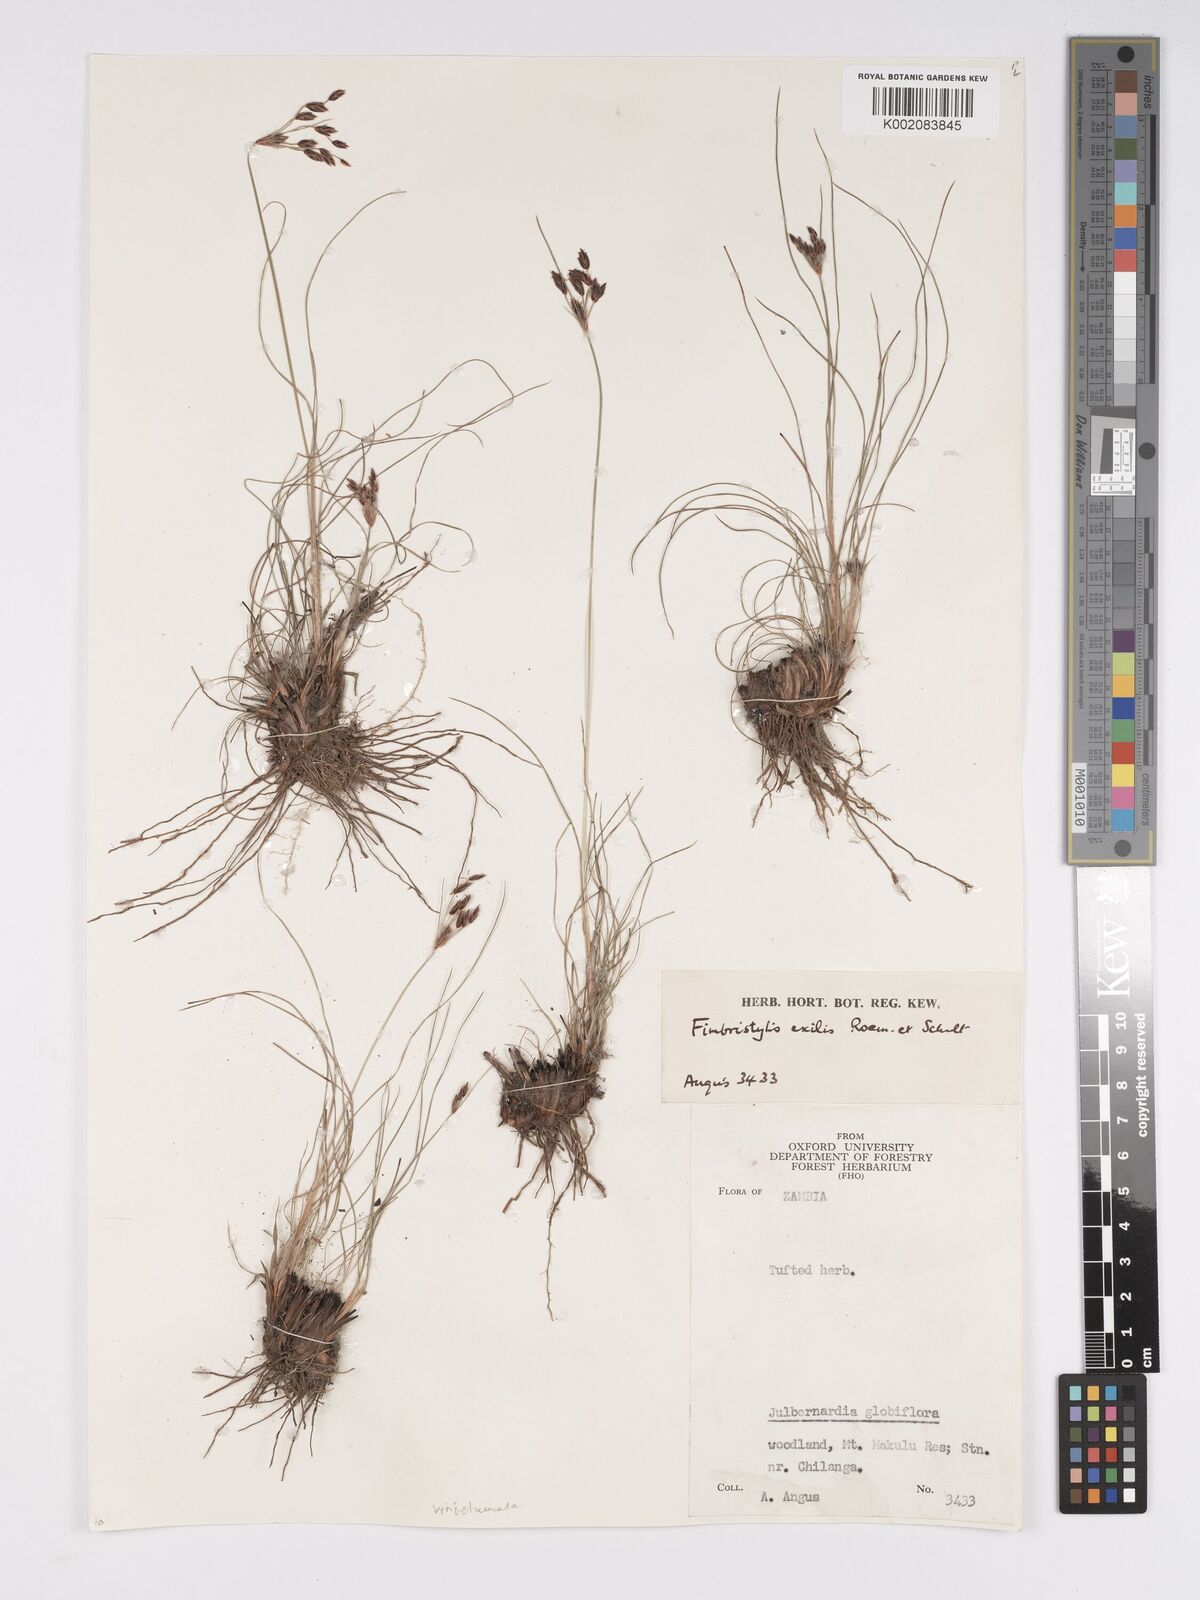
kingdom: Plantae
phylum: Tracheophyta
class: Liliopsida
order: Poales
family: Cyperaceae
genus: Bulbostylis
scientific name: Bulbostylis hispidula
